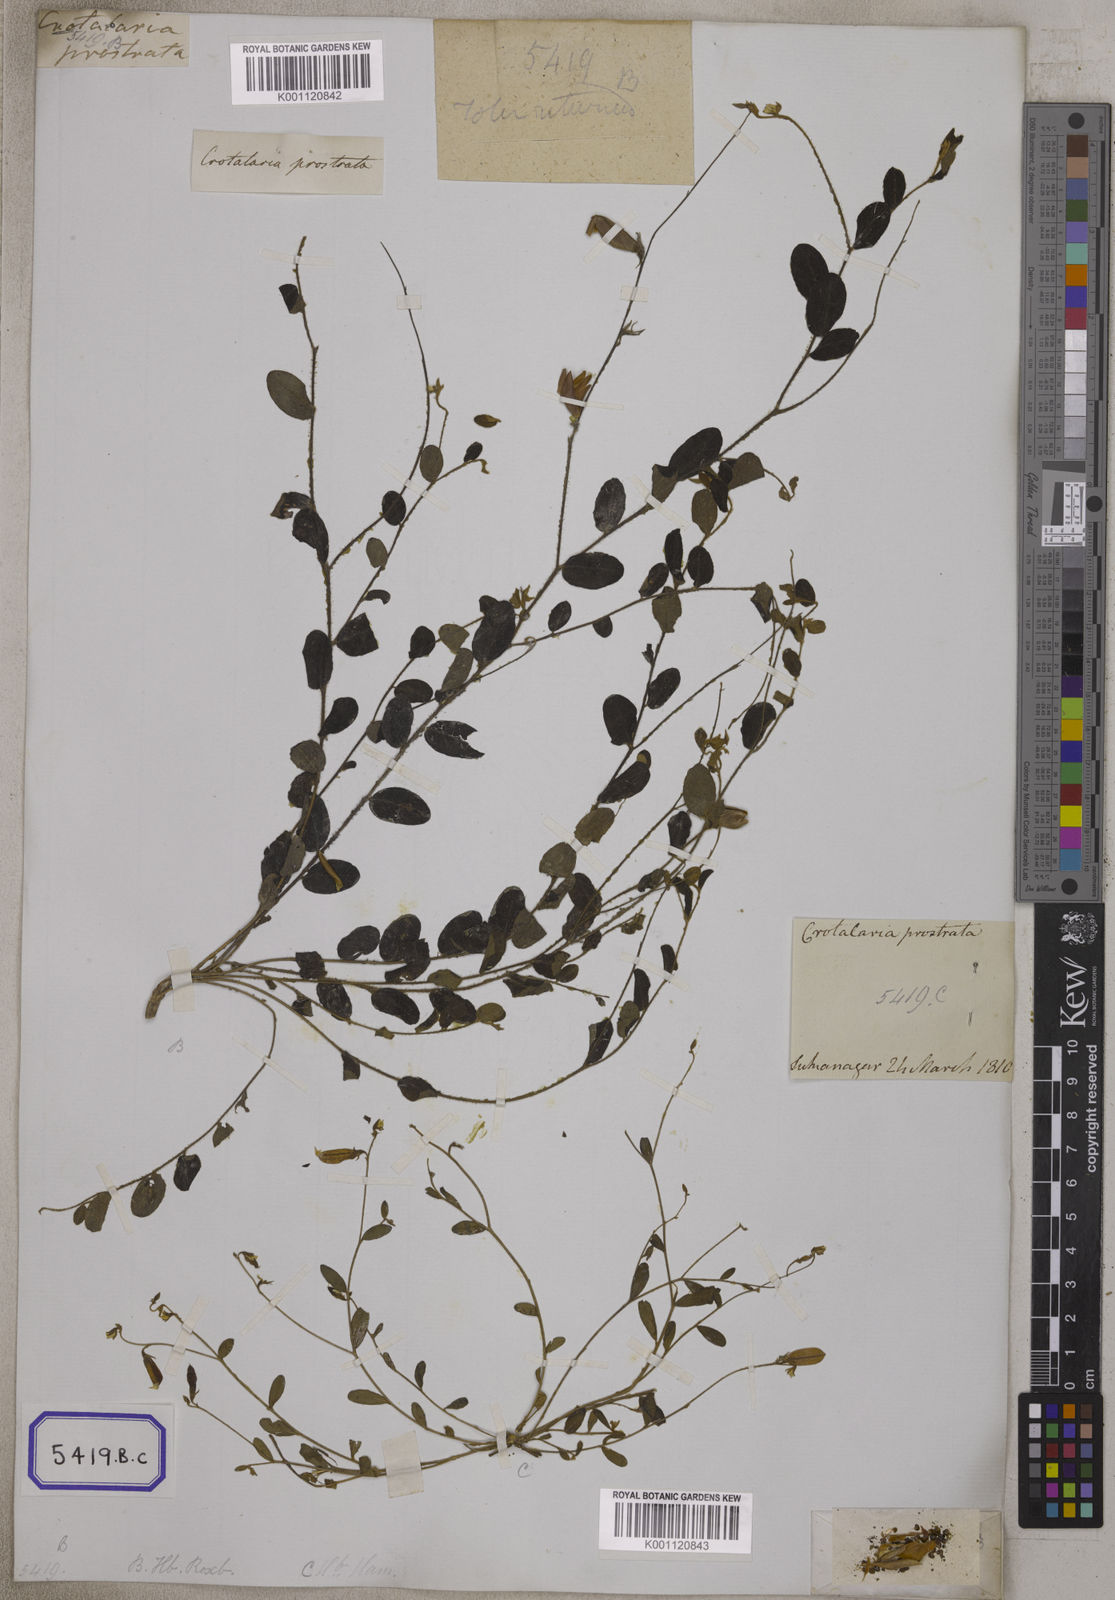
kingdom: Plantae
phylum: Tracheophyta
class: Magnoliopsida
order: Fabales
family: Fabaceae
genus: Crotalaria
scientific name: Crotalaria
